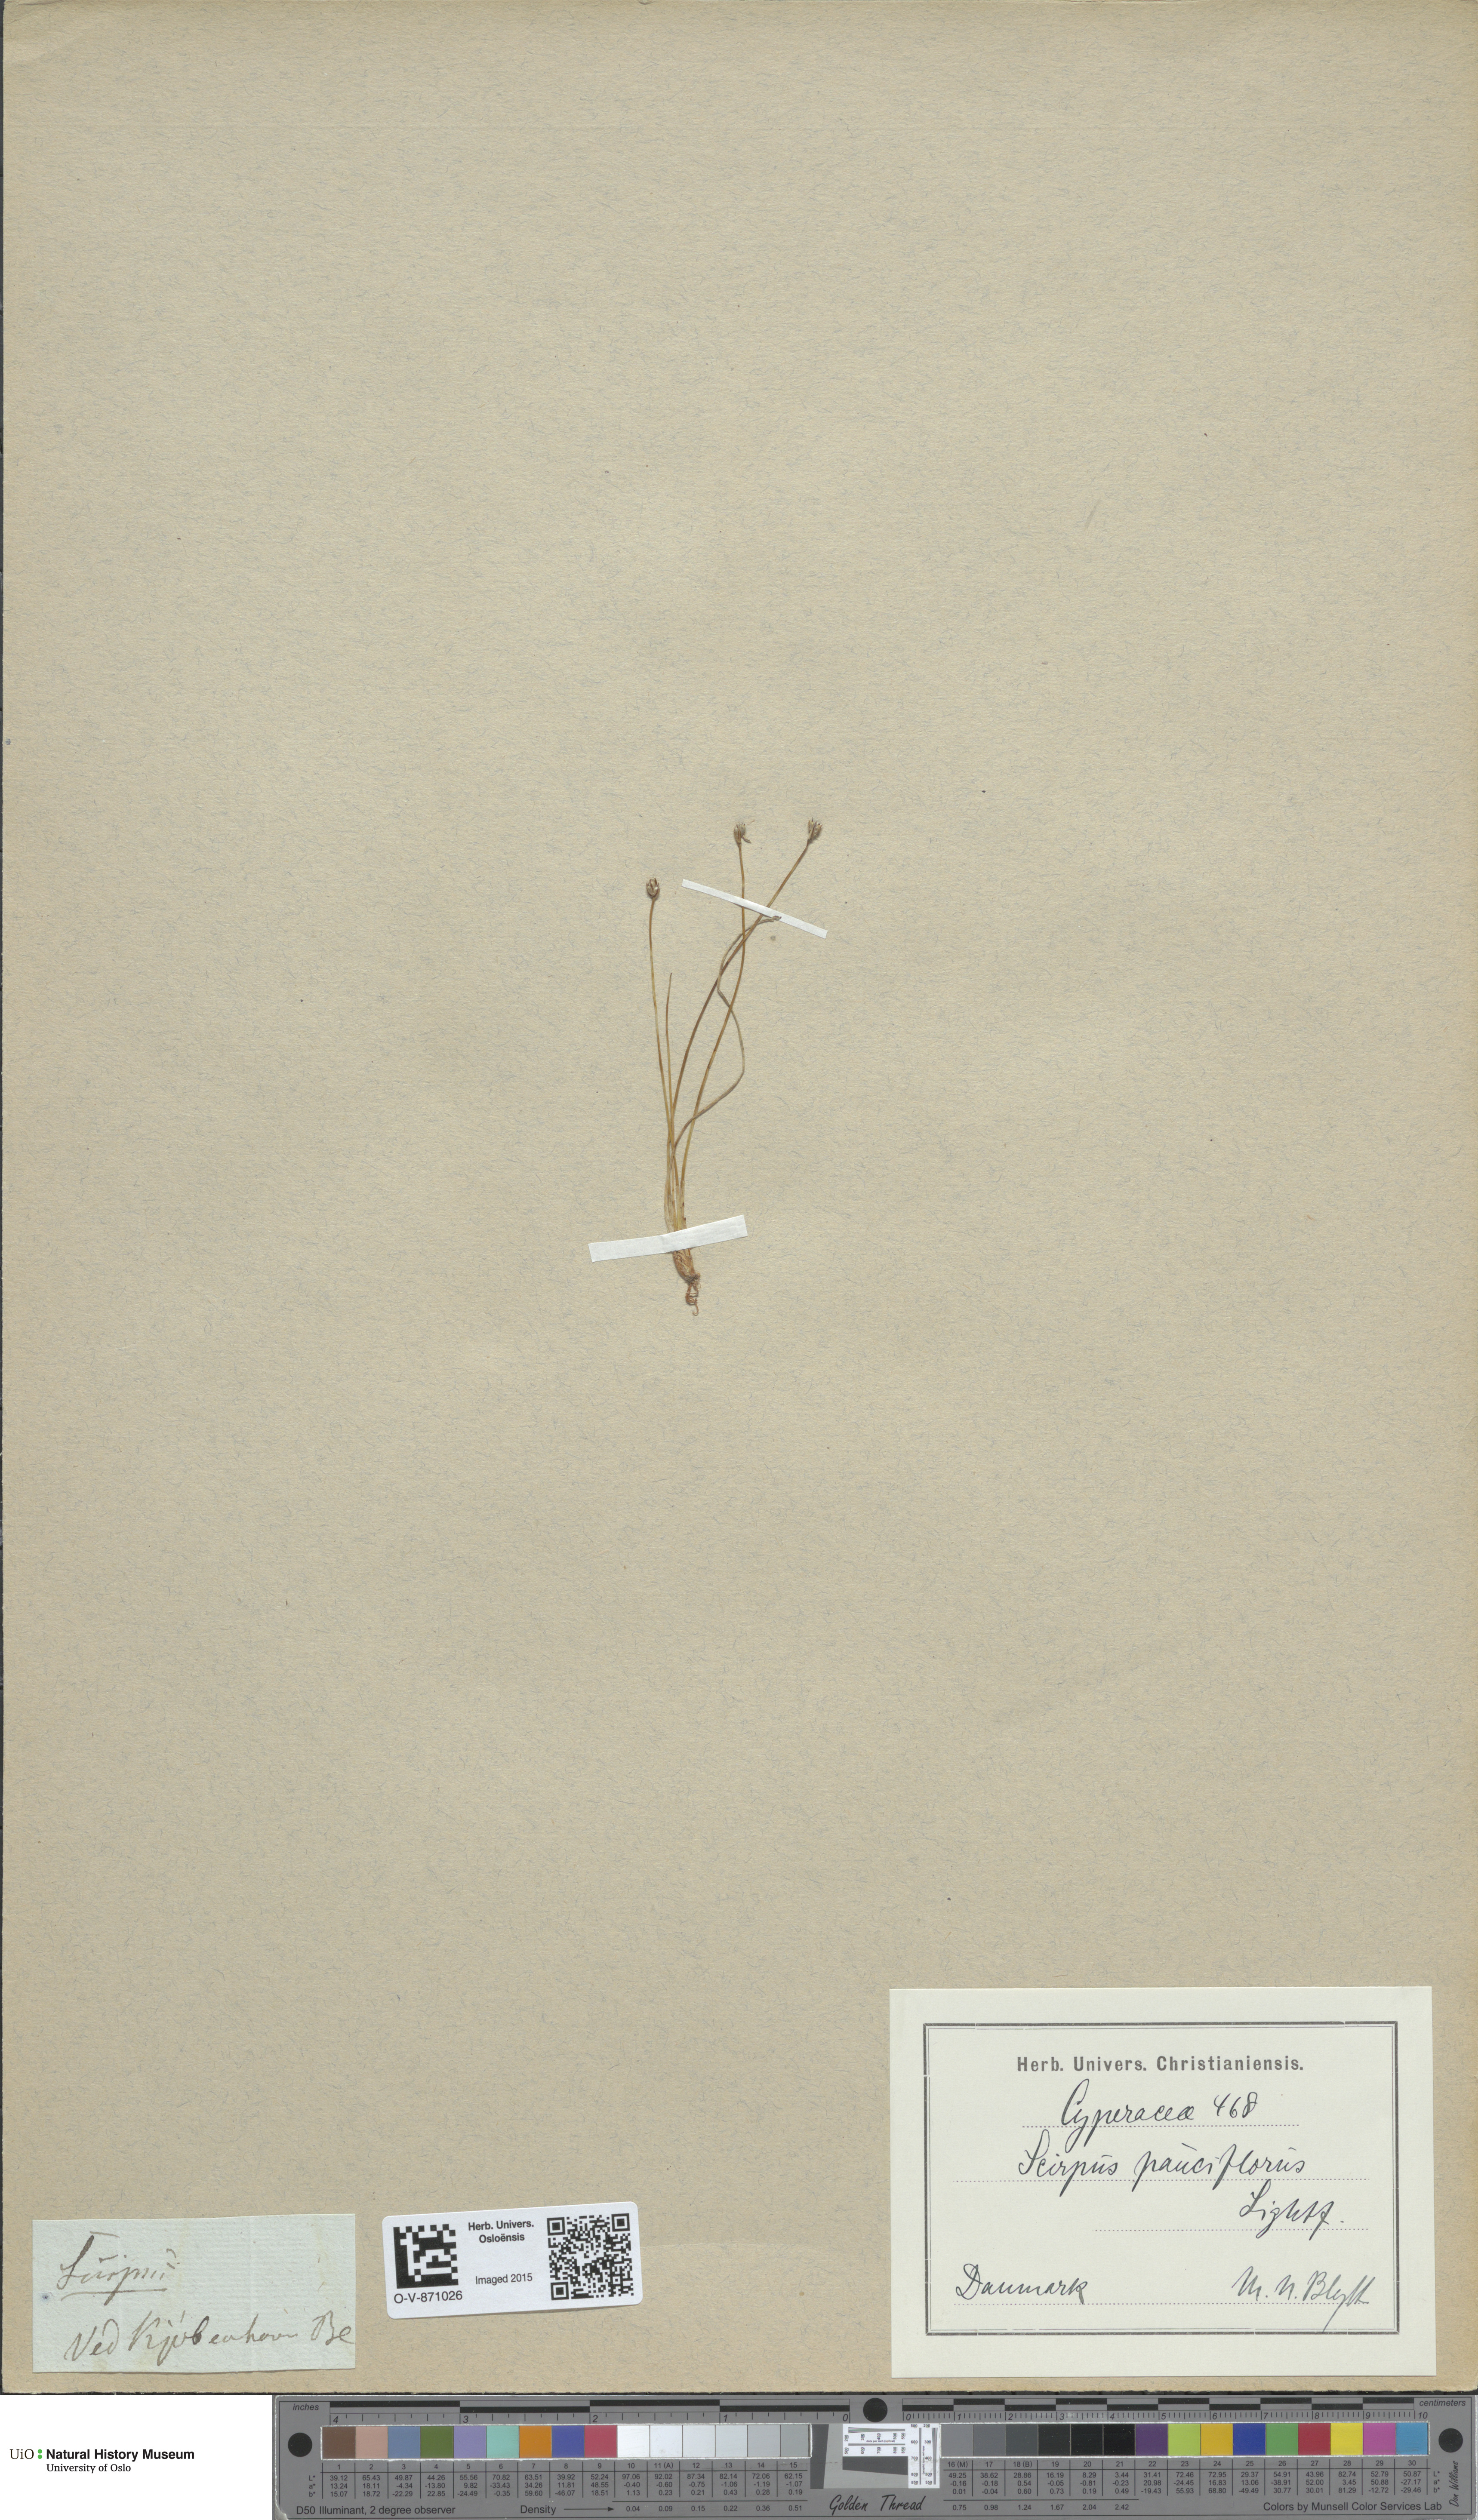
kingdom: Plantae
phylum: Tracheophyta
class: Liliopsida
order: Poales
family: Cyperaceae
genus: Eleocharis
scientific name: Eleocharis quinqueflora
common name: Few-flowered spike-rush
